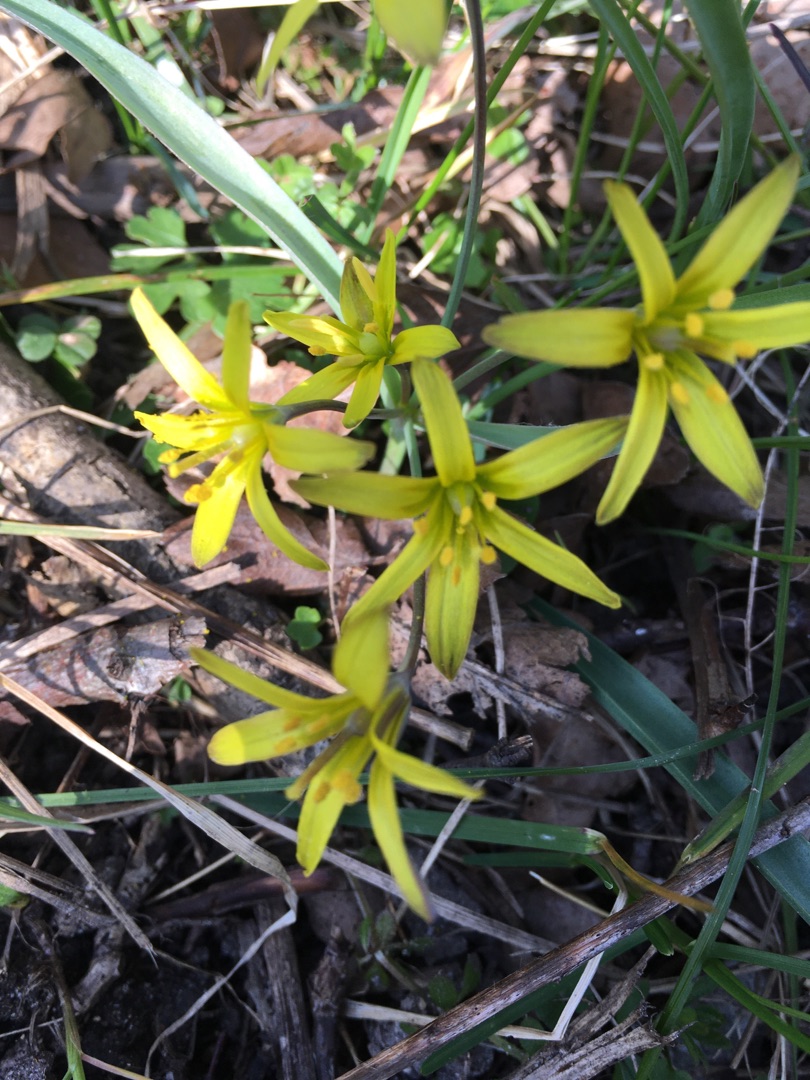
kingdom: Plantae
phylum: Tracheophyta
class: Liliopsida
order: Liliales
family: Liliaceae
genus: Gagea
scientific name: Gagea lutea
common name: Almindelig guldstjerne
